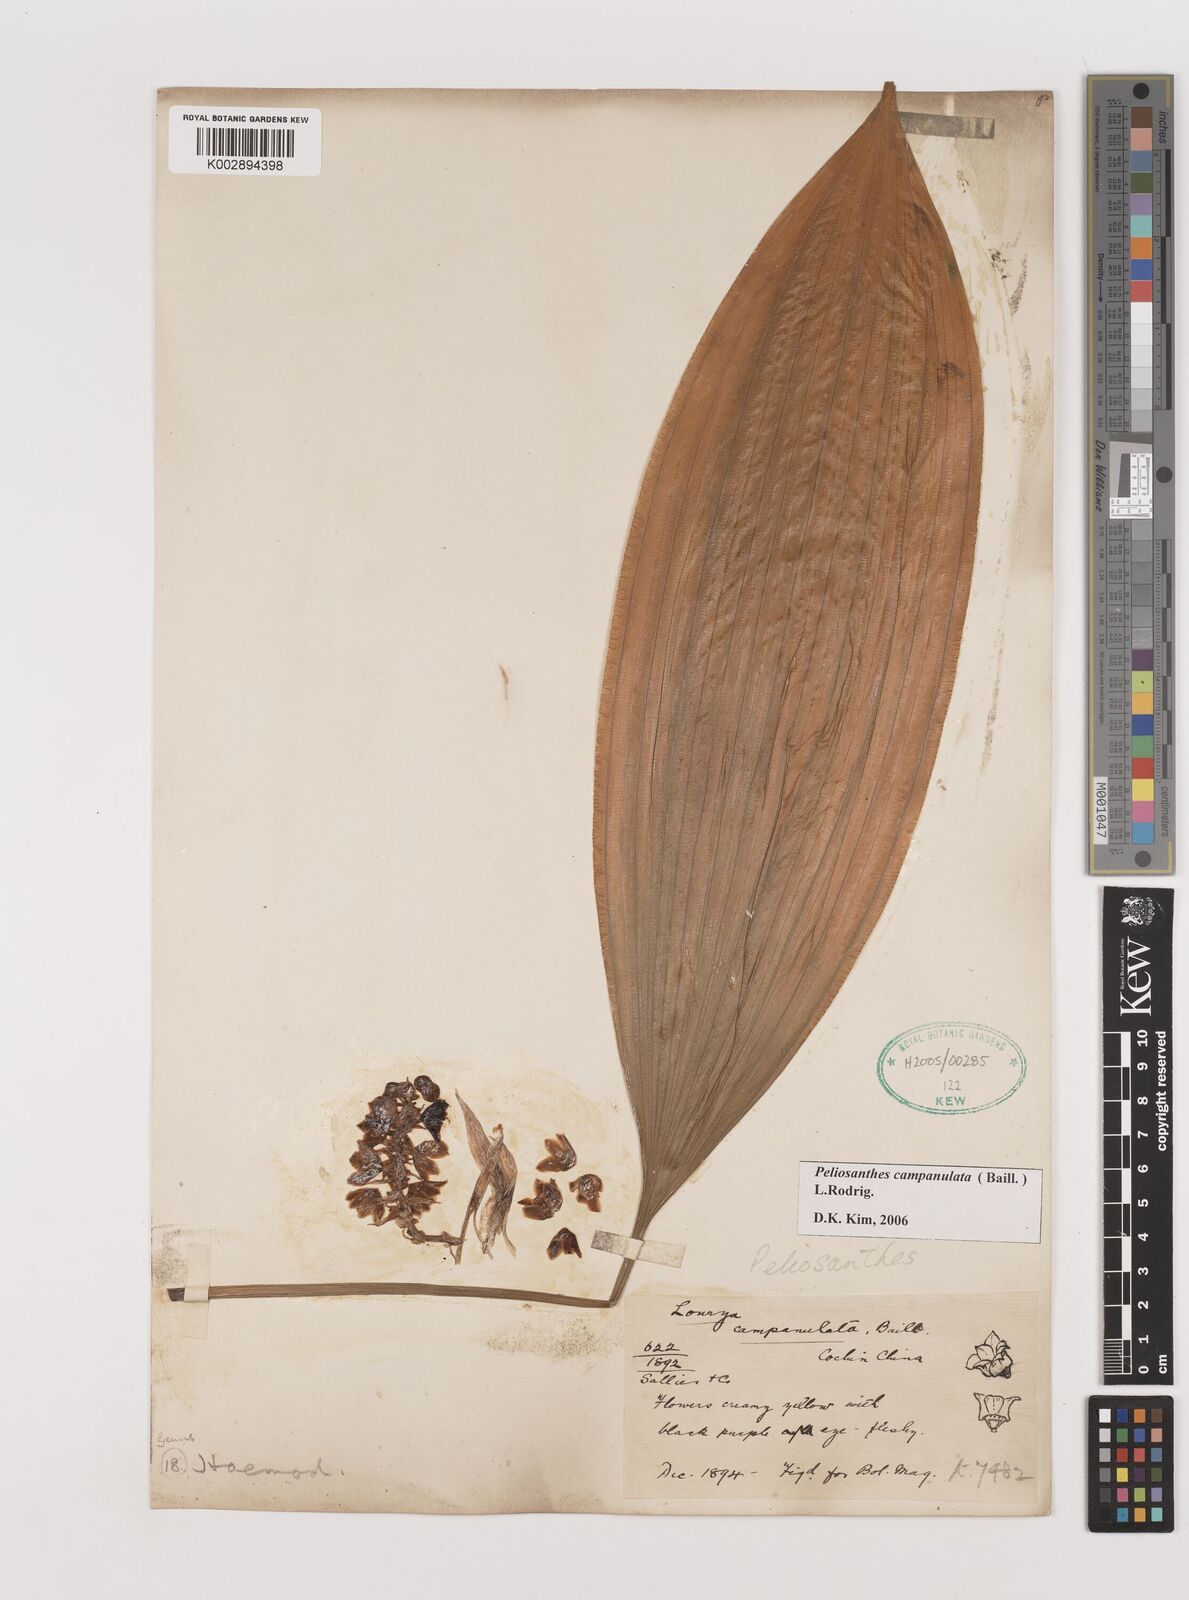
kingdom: Plantae
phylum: Tracheophyta
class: Liliopsida
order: Asparagales
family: Asparagaceae
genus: Peliosanthes
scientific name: Peliosanthes teta
